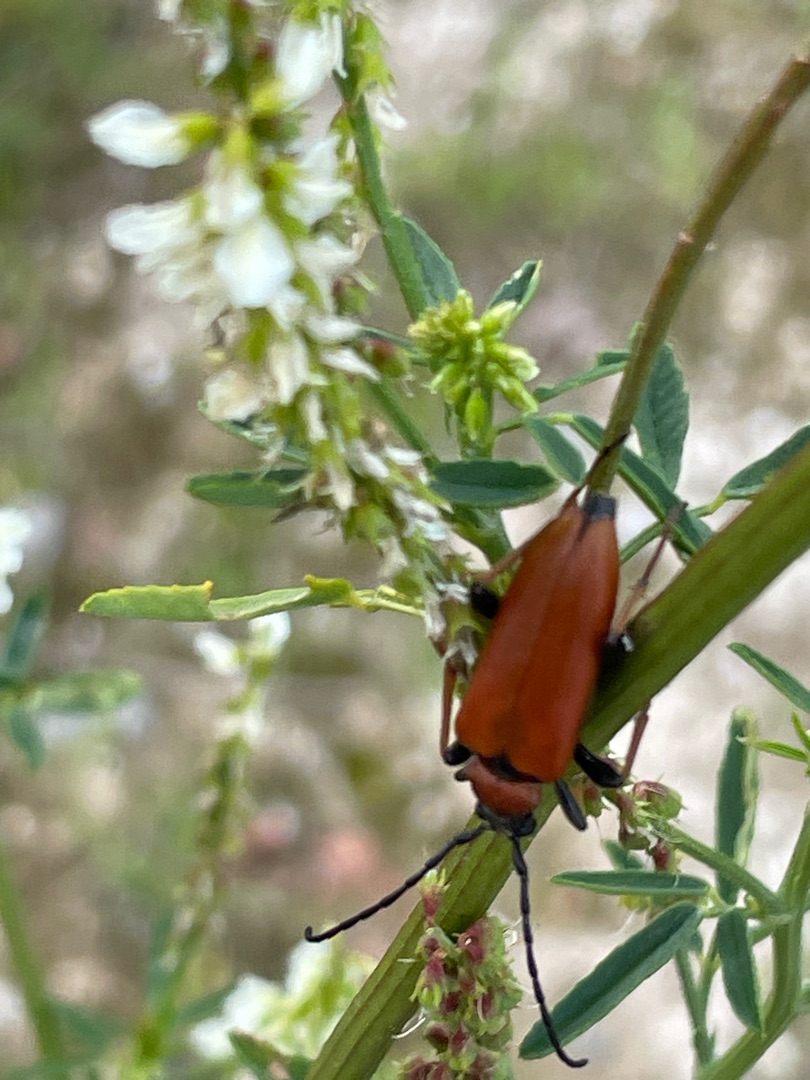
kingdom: Animalia
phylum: Arthropoda
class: Insecta
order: Coleoptera
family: Cerambycidae
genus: Stictoleptura
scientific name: Stictoleptura rubra
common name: Rød blomsterbuk
